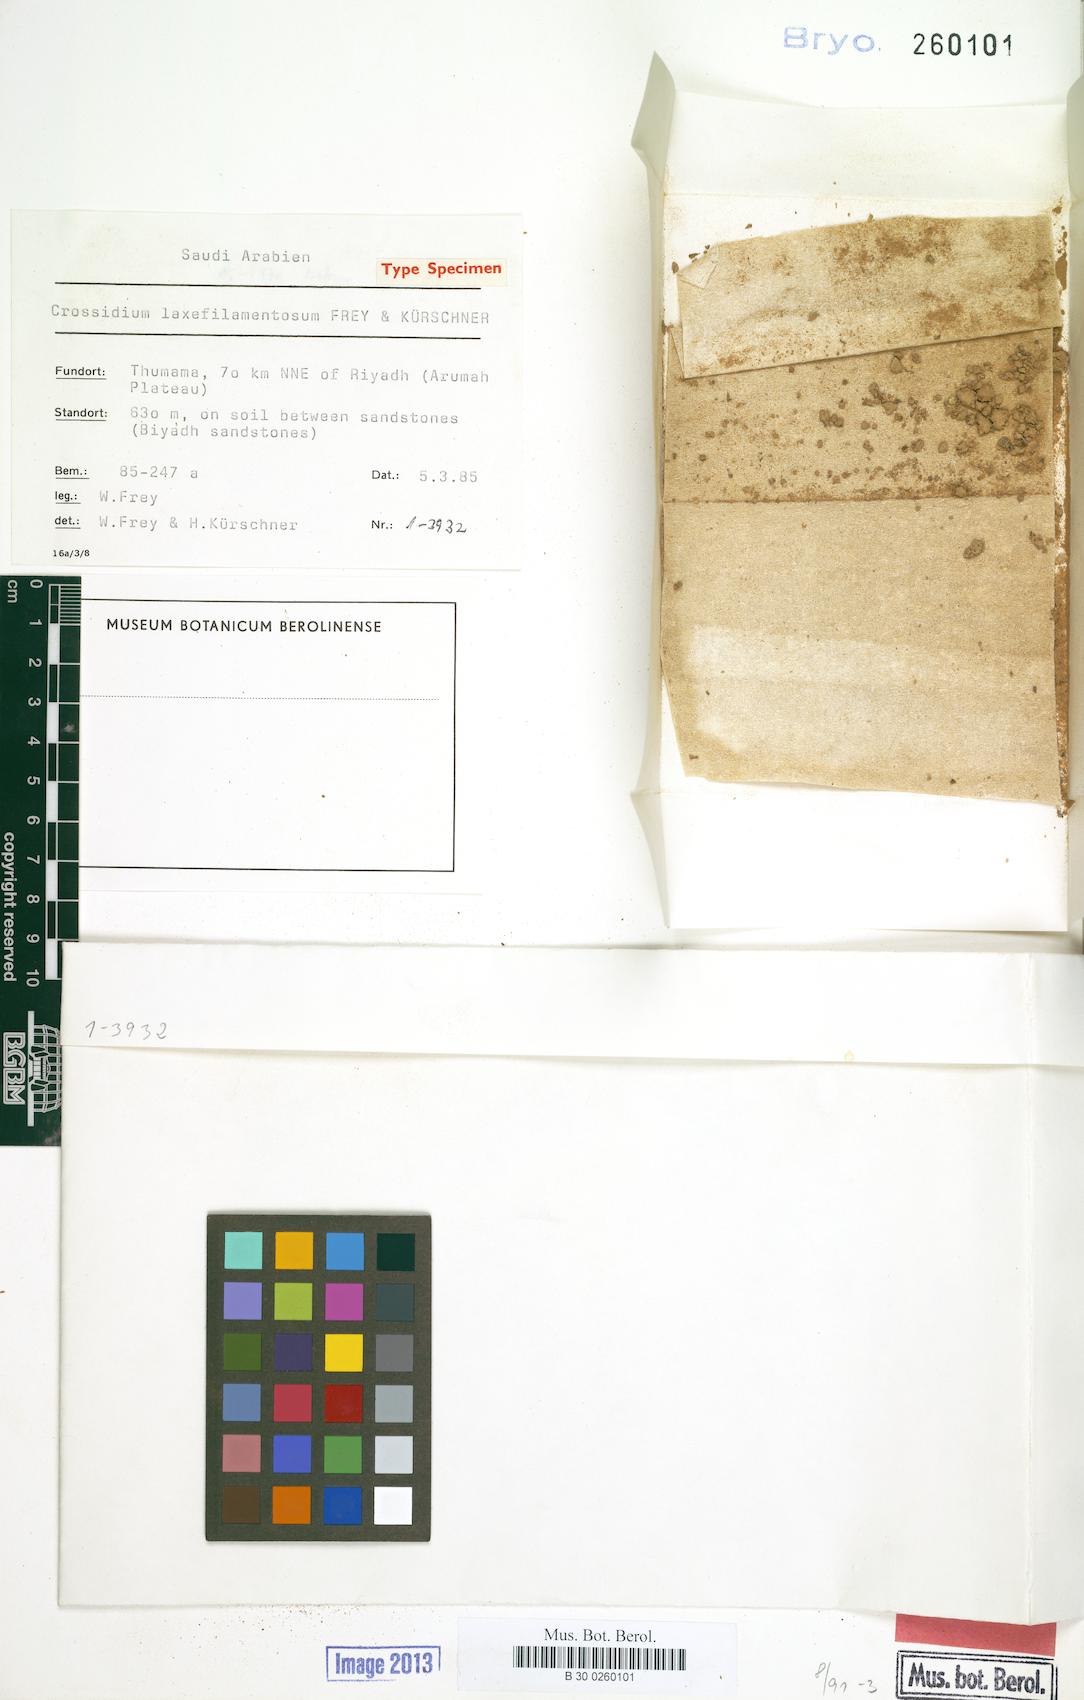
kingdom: Plantae
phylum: Bryophyta
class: Bryopsida
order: Pottiales
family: Pottiaceae
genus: Crossidium
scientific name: Crossidium laxefilamentosum
